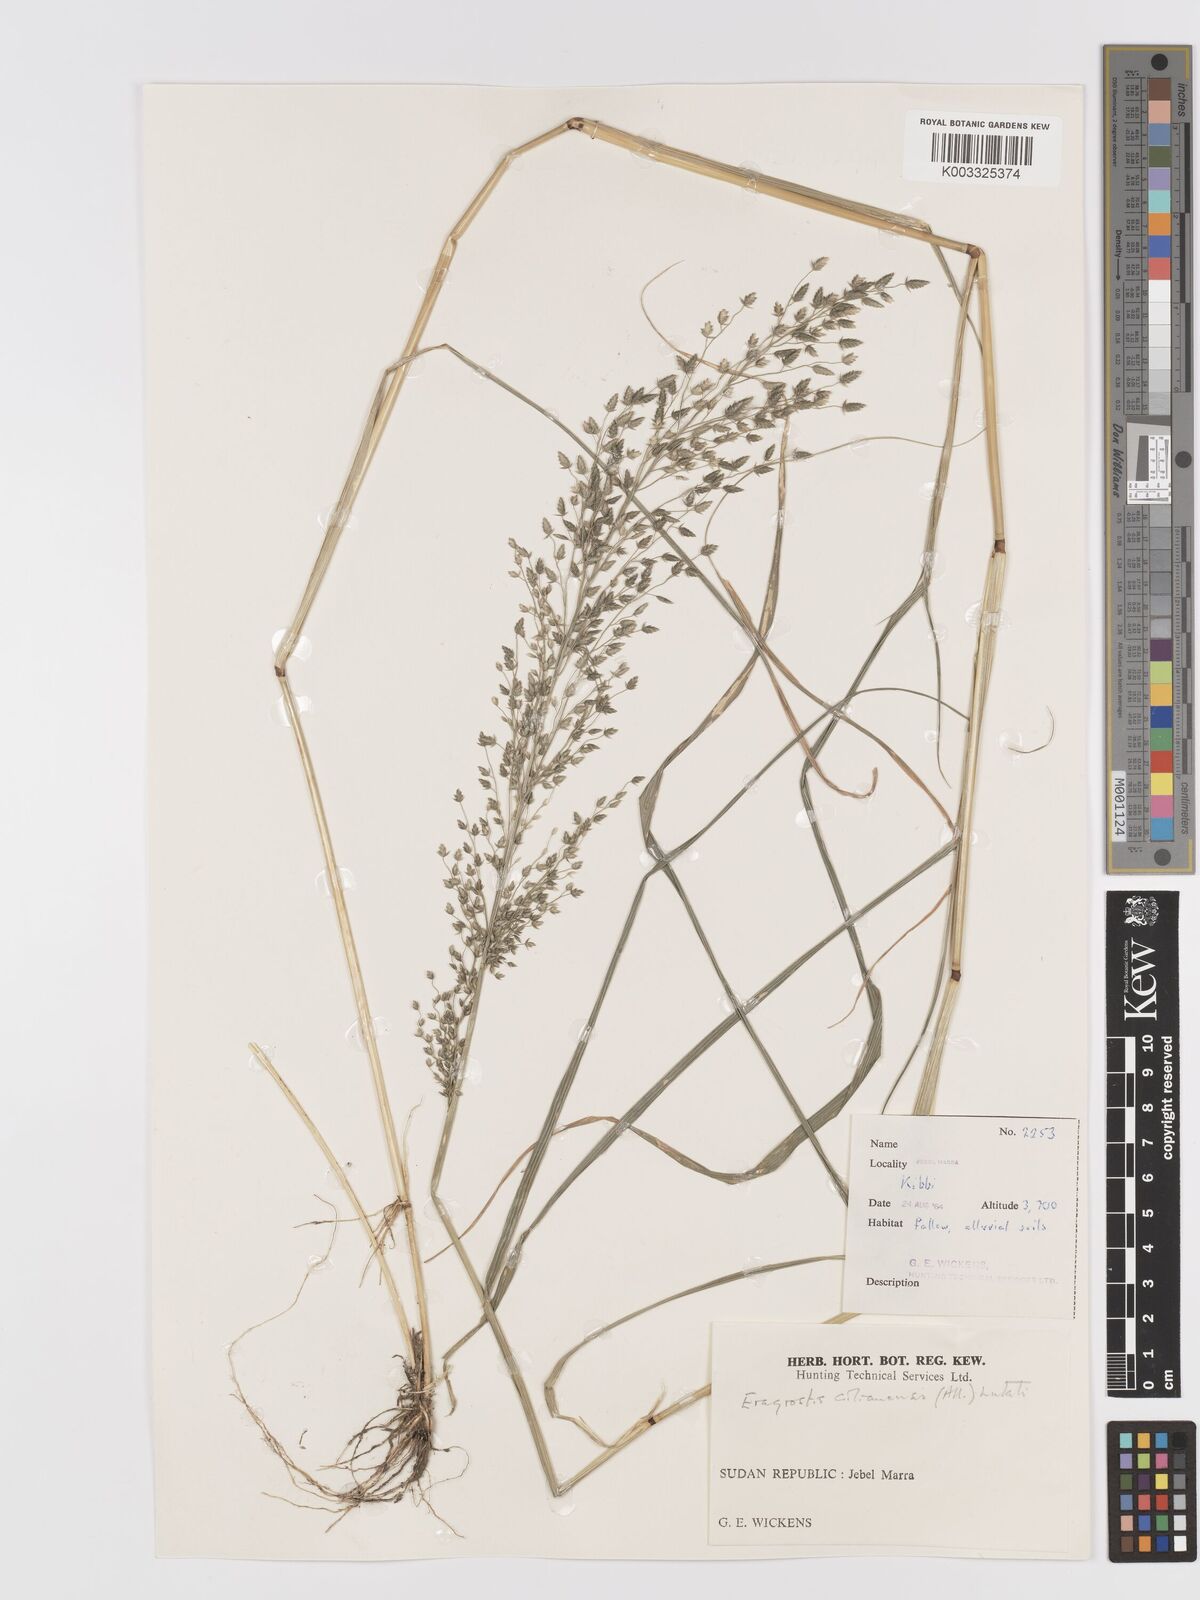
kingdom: Plantae
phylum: Tracheophyta
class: Liliopsida
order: Poales
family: Poaceae
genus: Eragrostis
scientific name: Eragrostis cilianensis
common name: Stinkgrass
